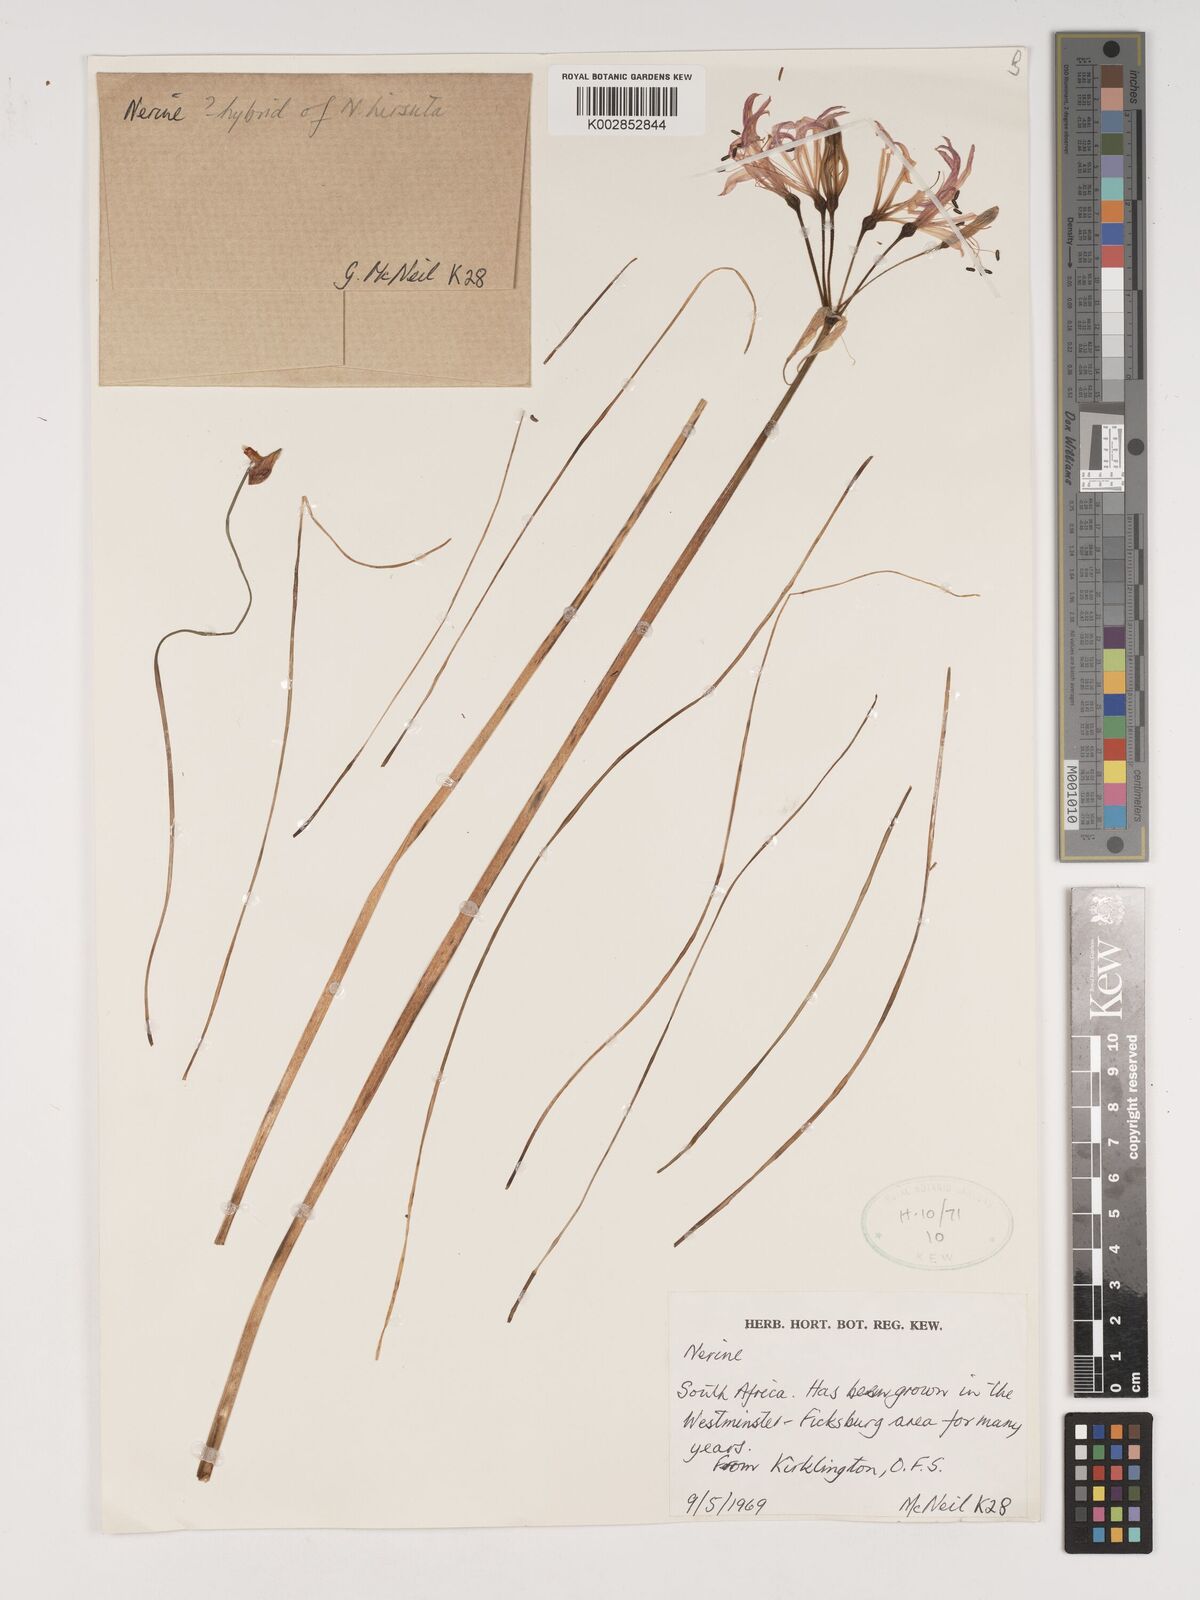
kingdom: Plantae
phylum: Tracheophyta
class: Liliopsida
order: Asparagales
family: Amaryllidaceae
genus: Nerine
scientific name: Nerine
